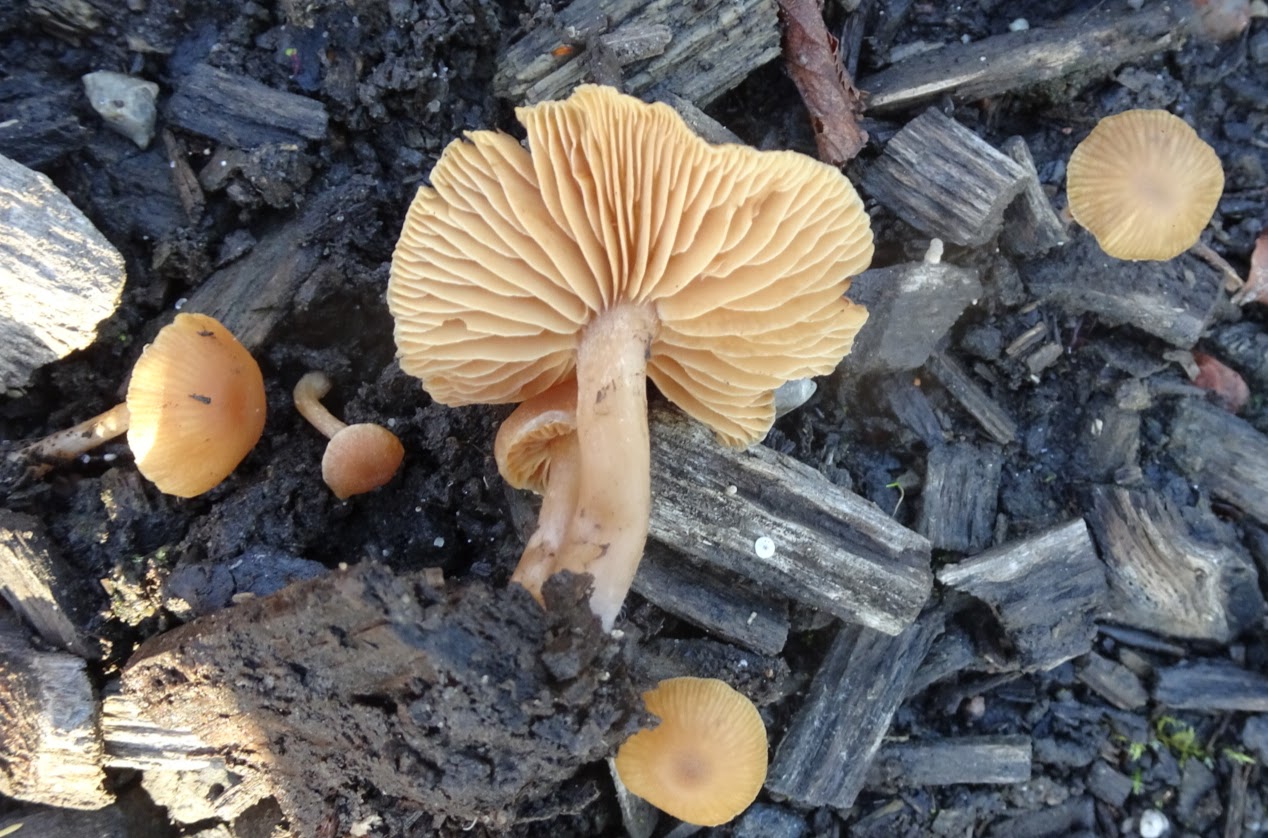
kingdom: Fungi
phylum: Basidiomycota
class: Agaricomycetes
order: Agaricales
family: Tubariaceae
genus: Tubaria
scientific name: Tubaria furfuracea
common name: kliddet fnughat
